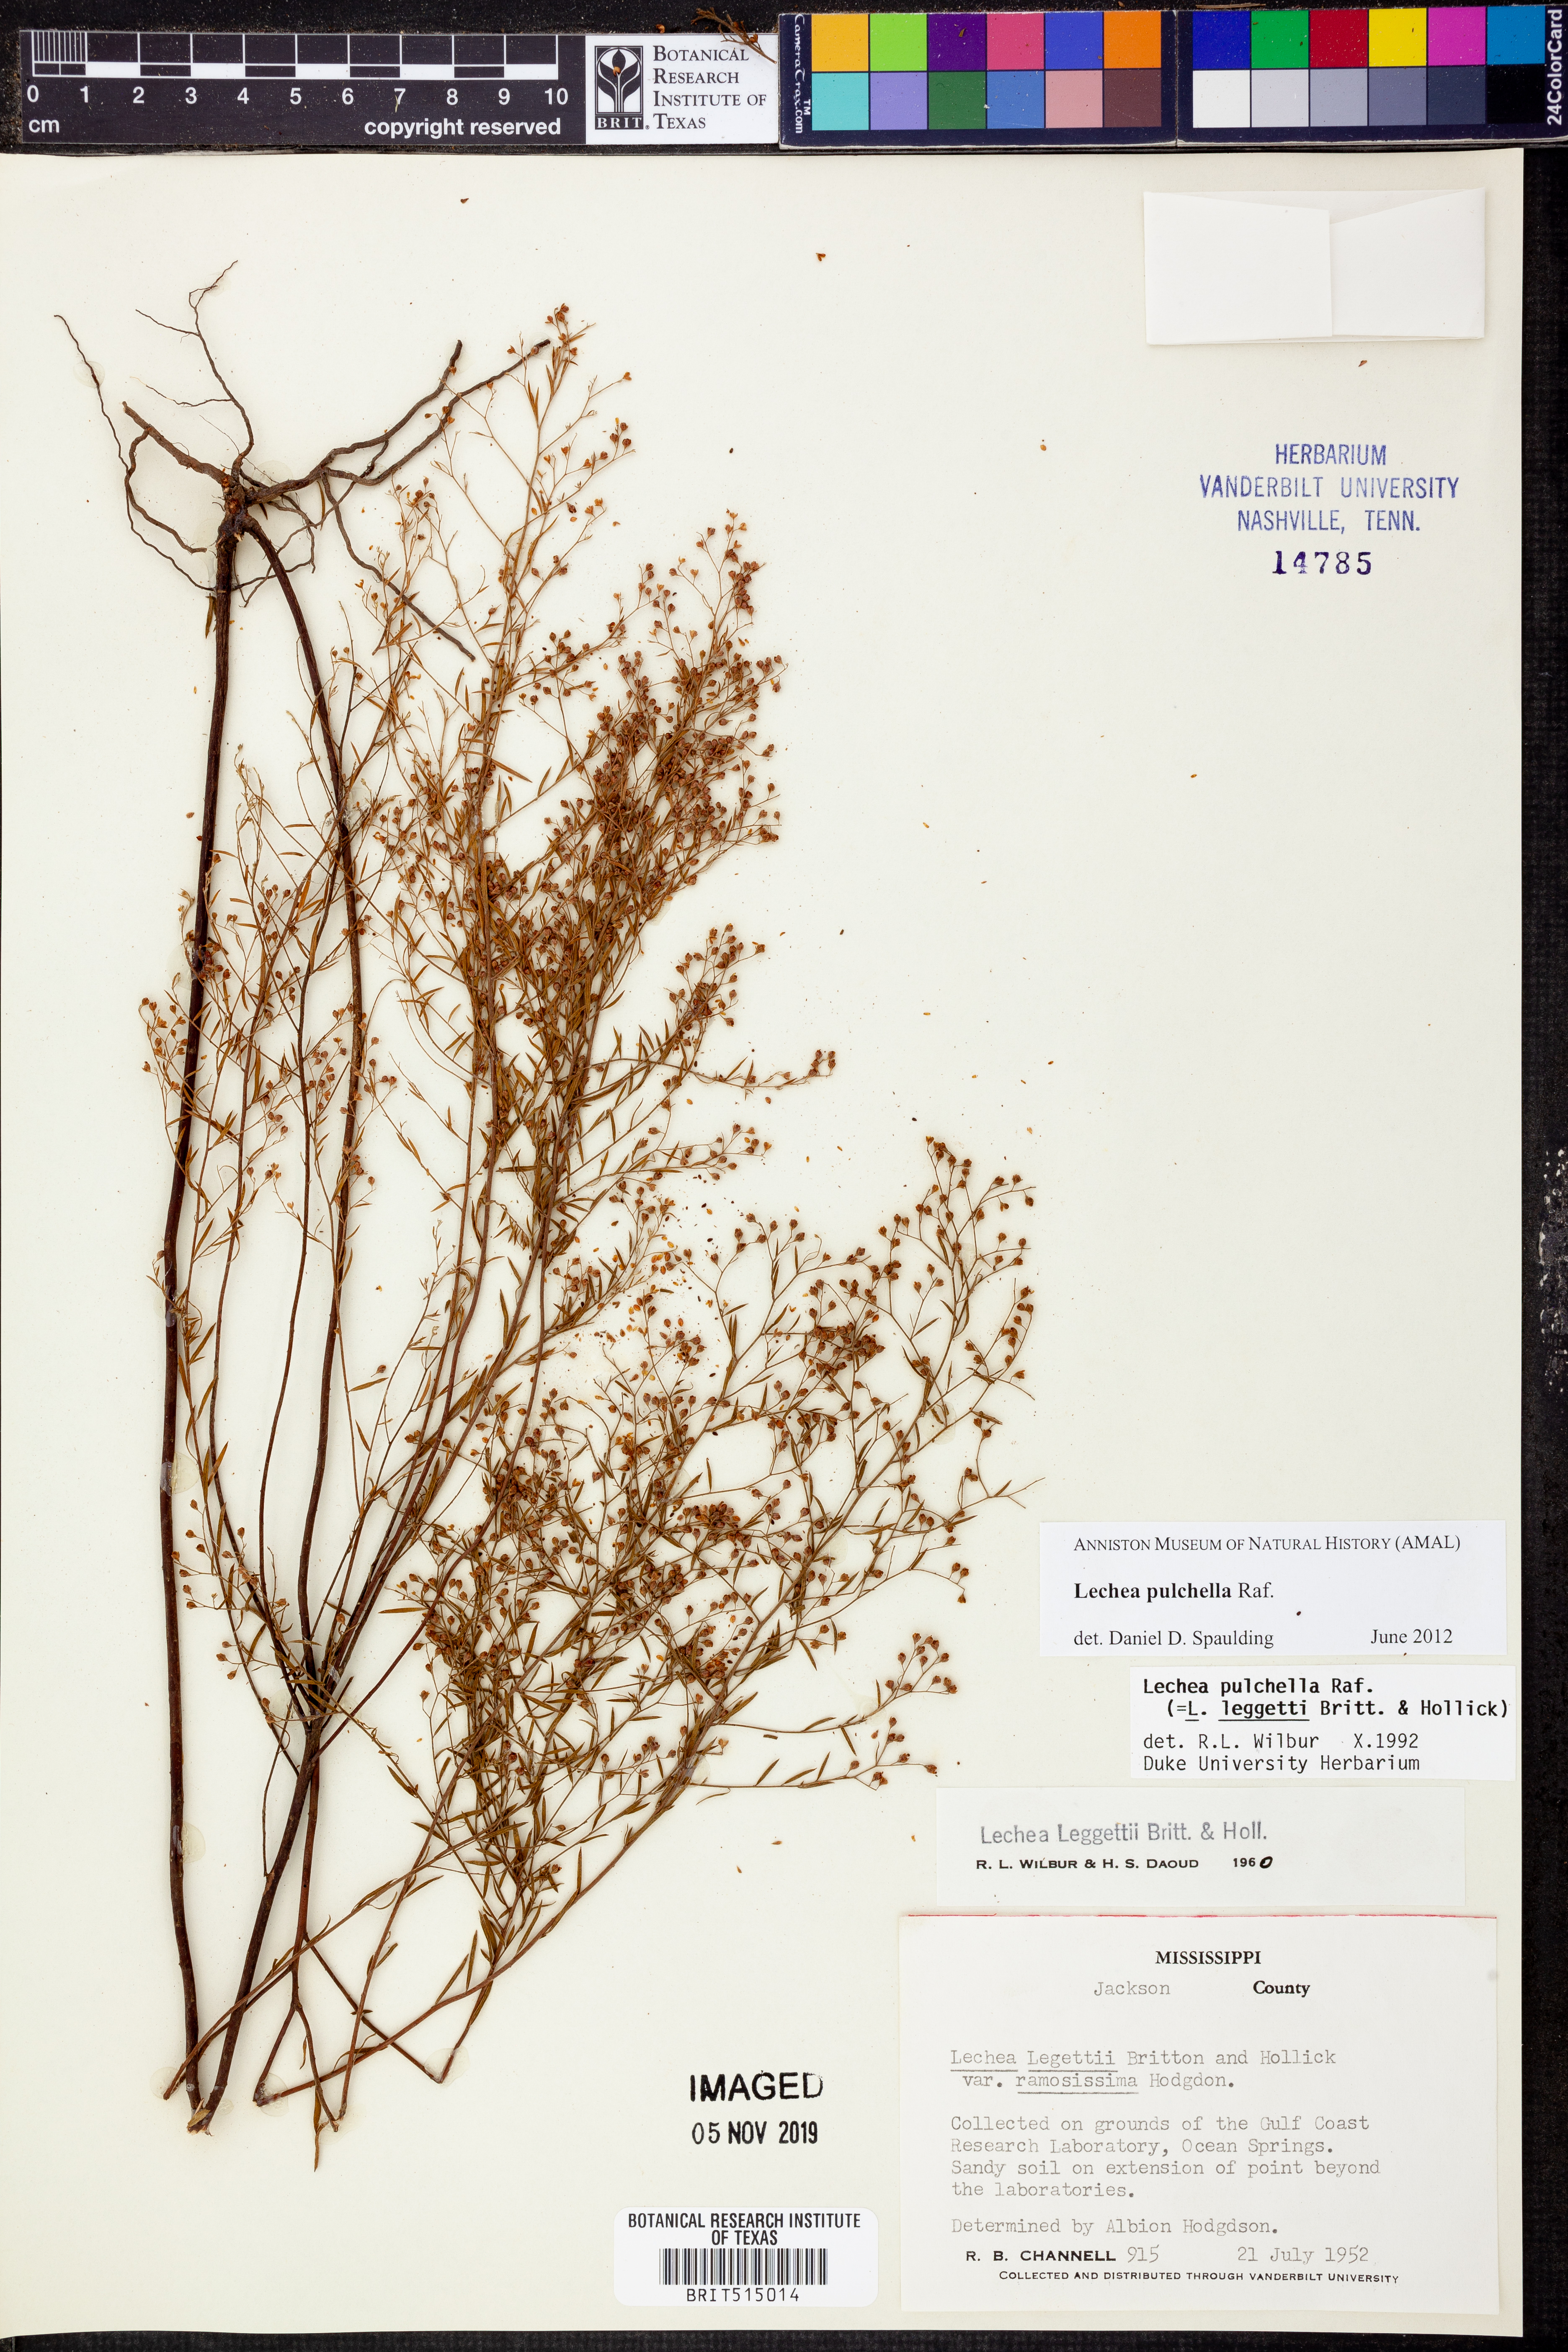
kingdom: Plantae
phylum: Tracheophyta
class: Magnoliopsida
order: Malvales
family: Cistaceae
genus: Lechea
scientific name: Lechea pulchella
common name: Leggett's pinweed
